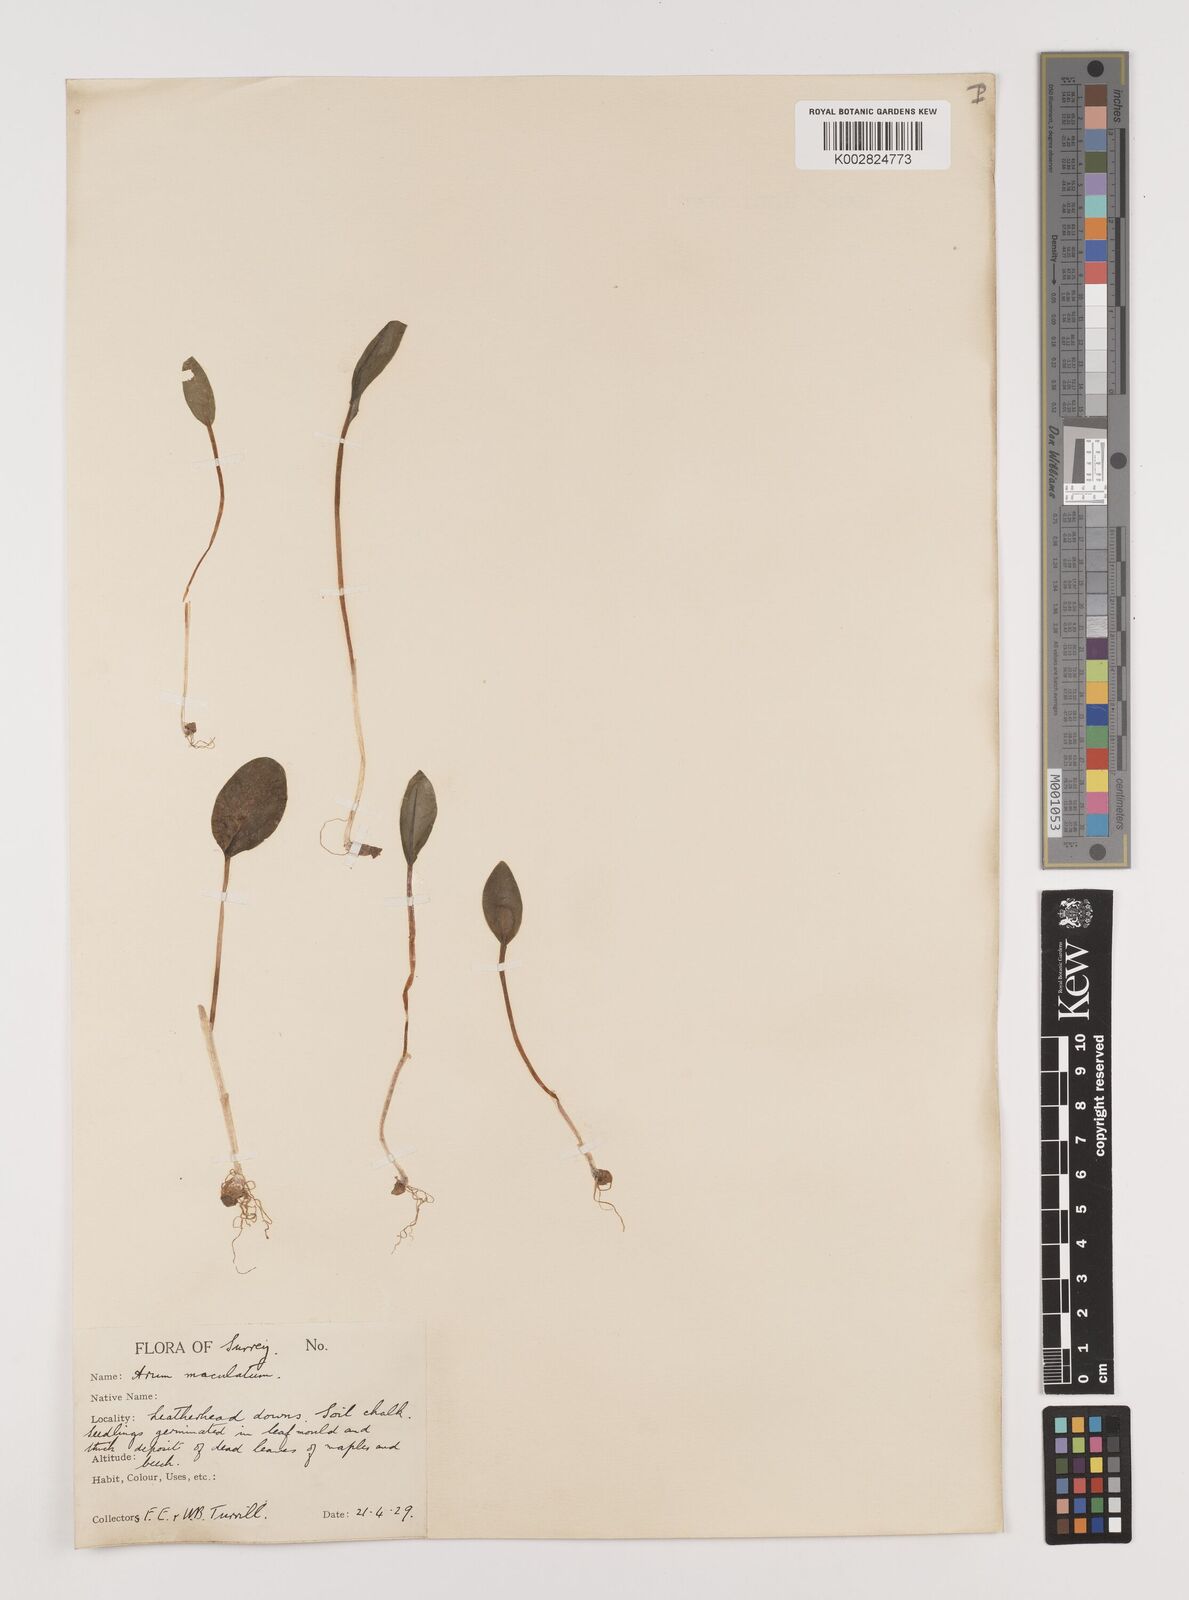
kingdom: Plantae
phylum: Tracheophyta
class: Liliopsida
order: Alismatales
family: Araceae
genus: Arum
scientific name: Arum maculatum
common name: Lords-and-ladies
